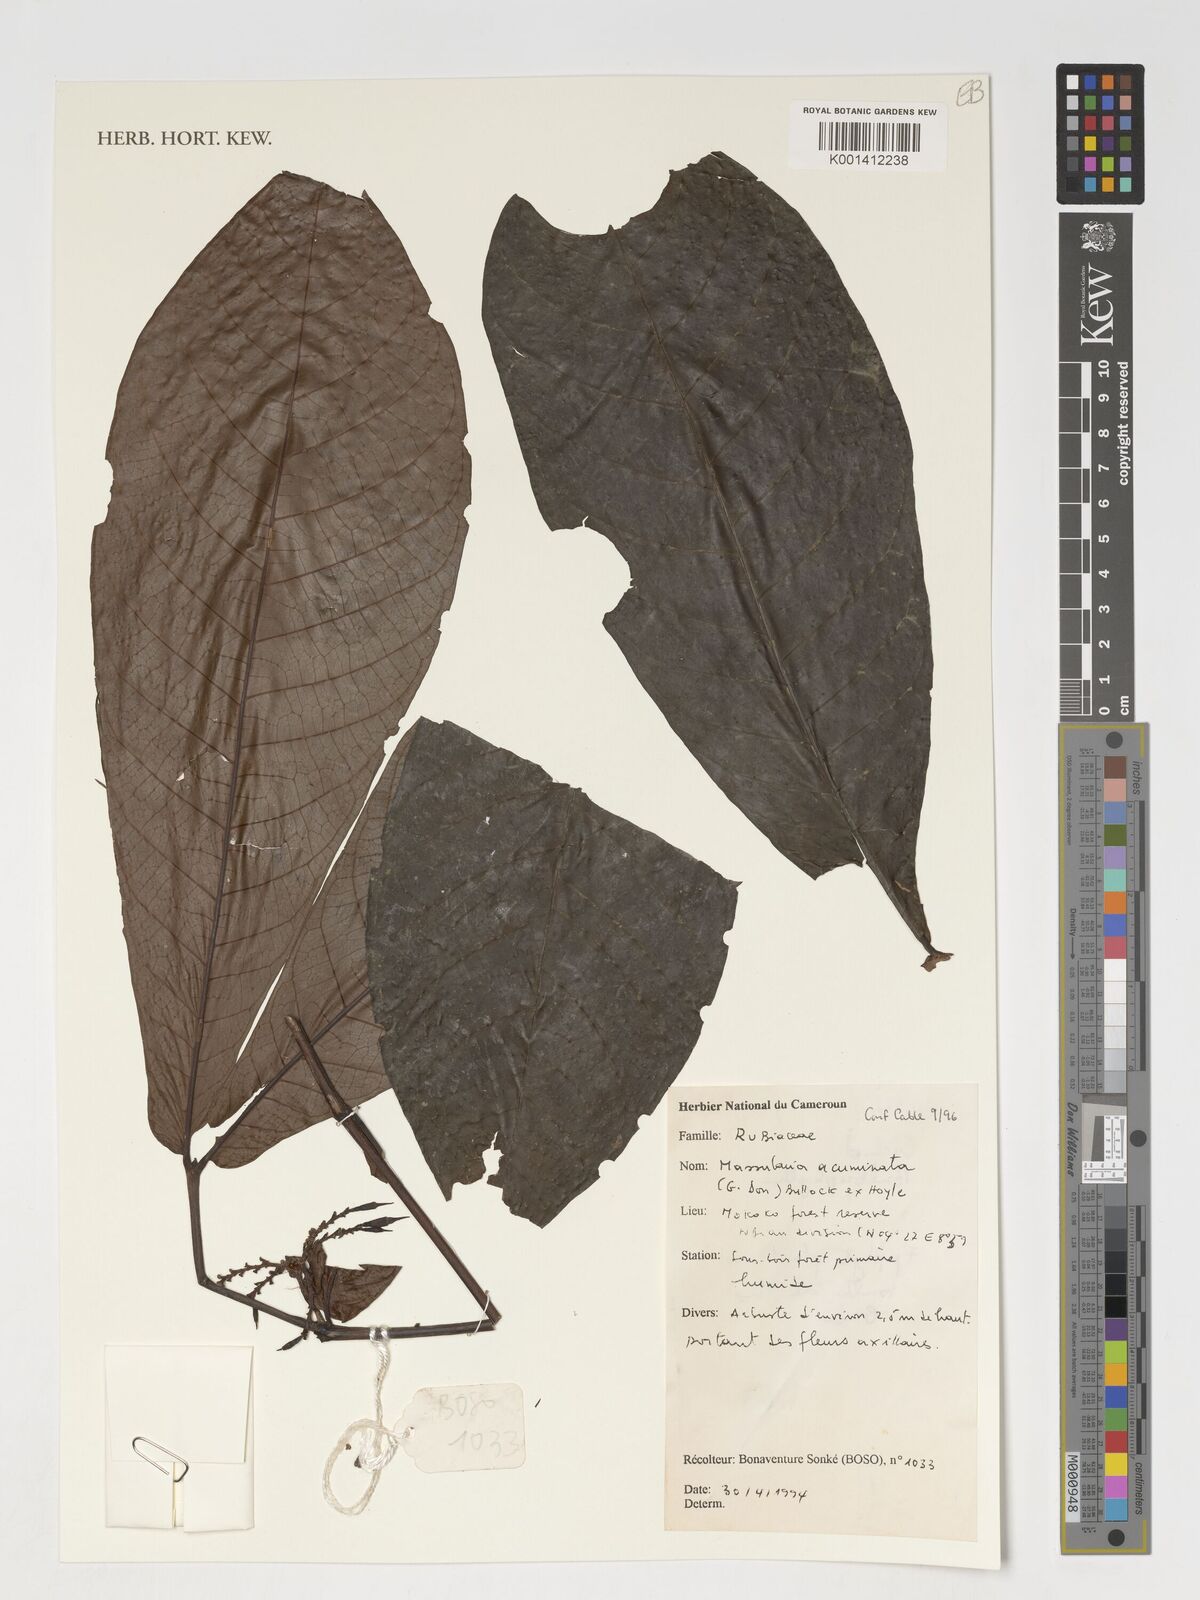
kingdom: Plantae
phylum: Tracheophyta
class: Magnoliopsida
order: Gentianales
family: Rubiaceae
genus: Massularia
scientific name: Massularia acuminata
